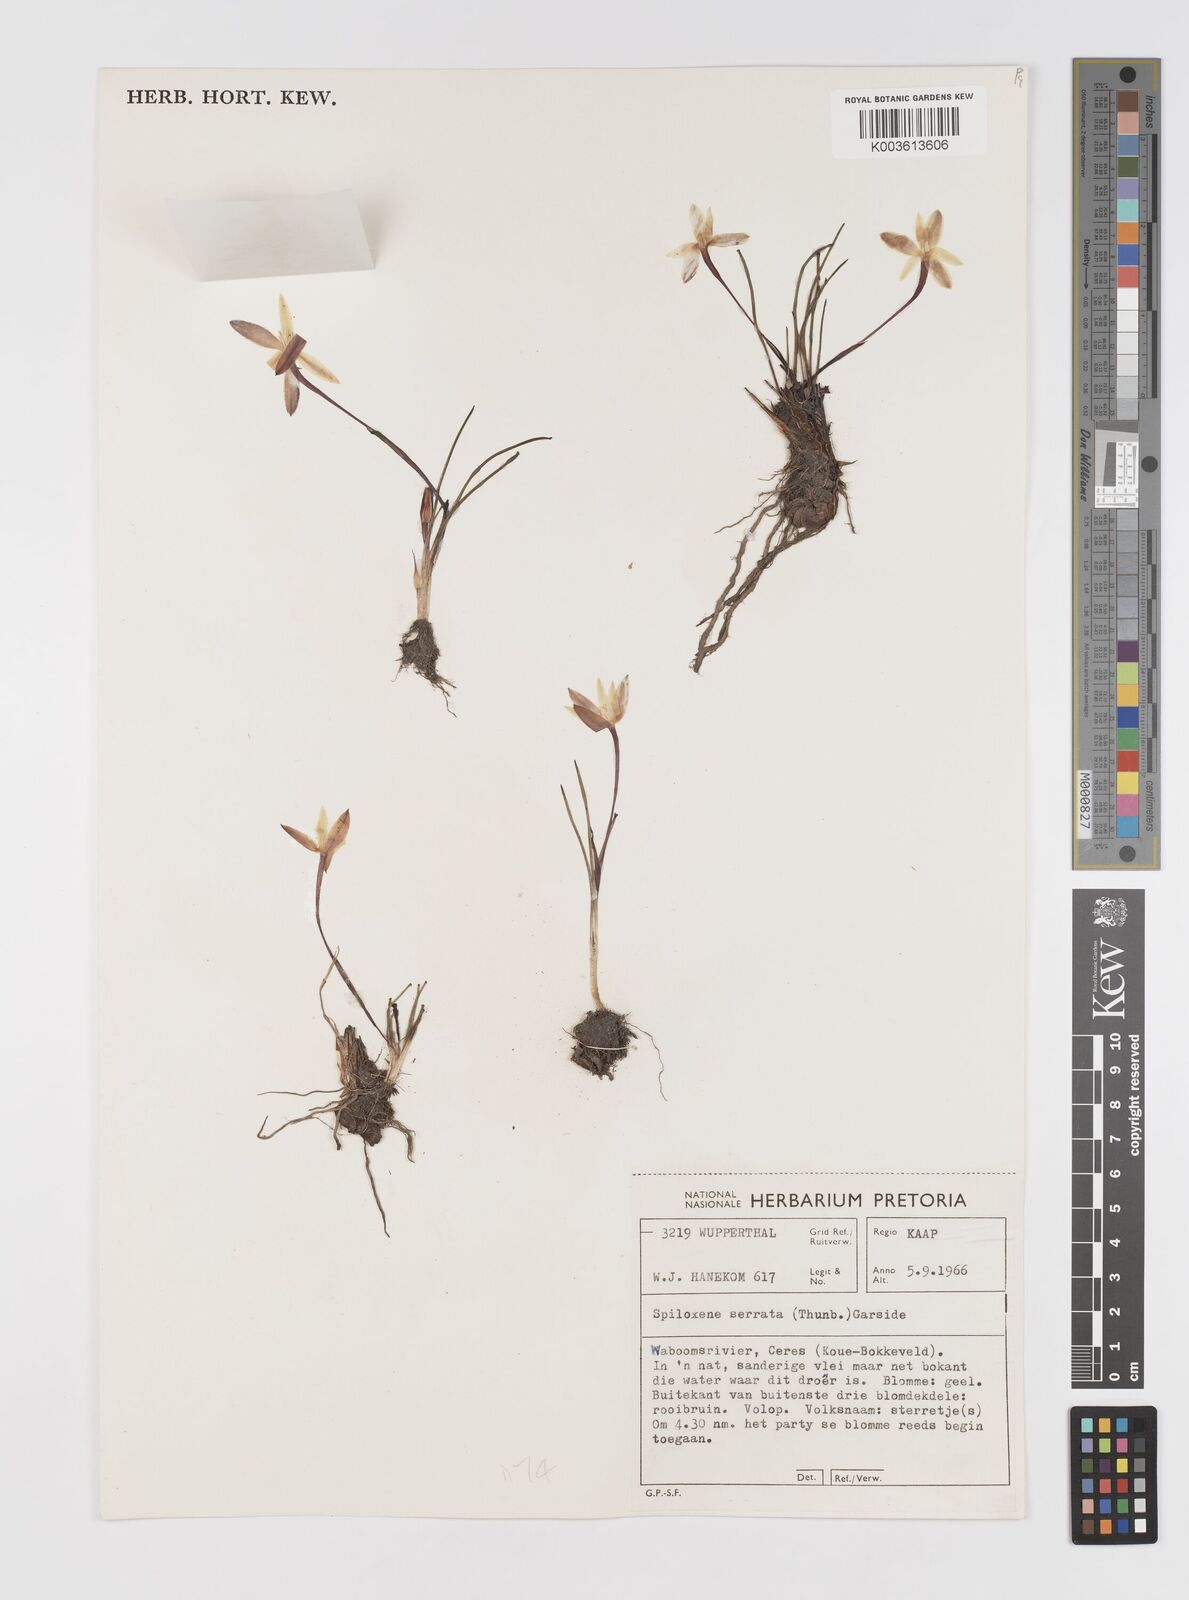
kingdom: Plantae
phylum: Tracheophyta
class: Liliopsida
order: Asparagales
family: Hypoxidaceae
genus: Pauridia
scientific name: Pauridia serrata
